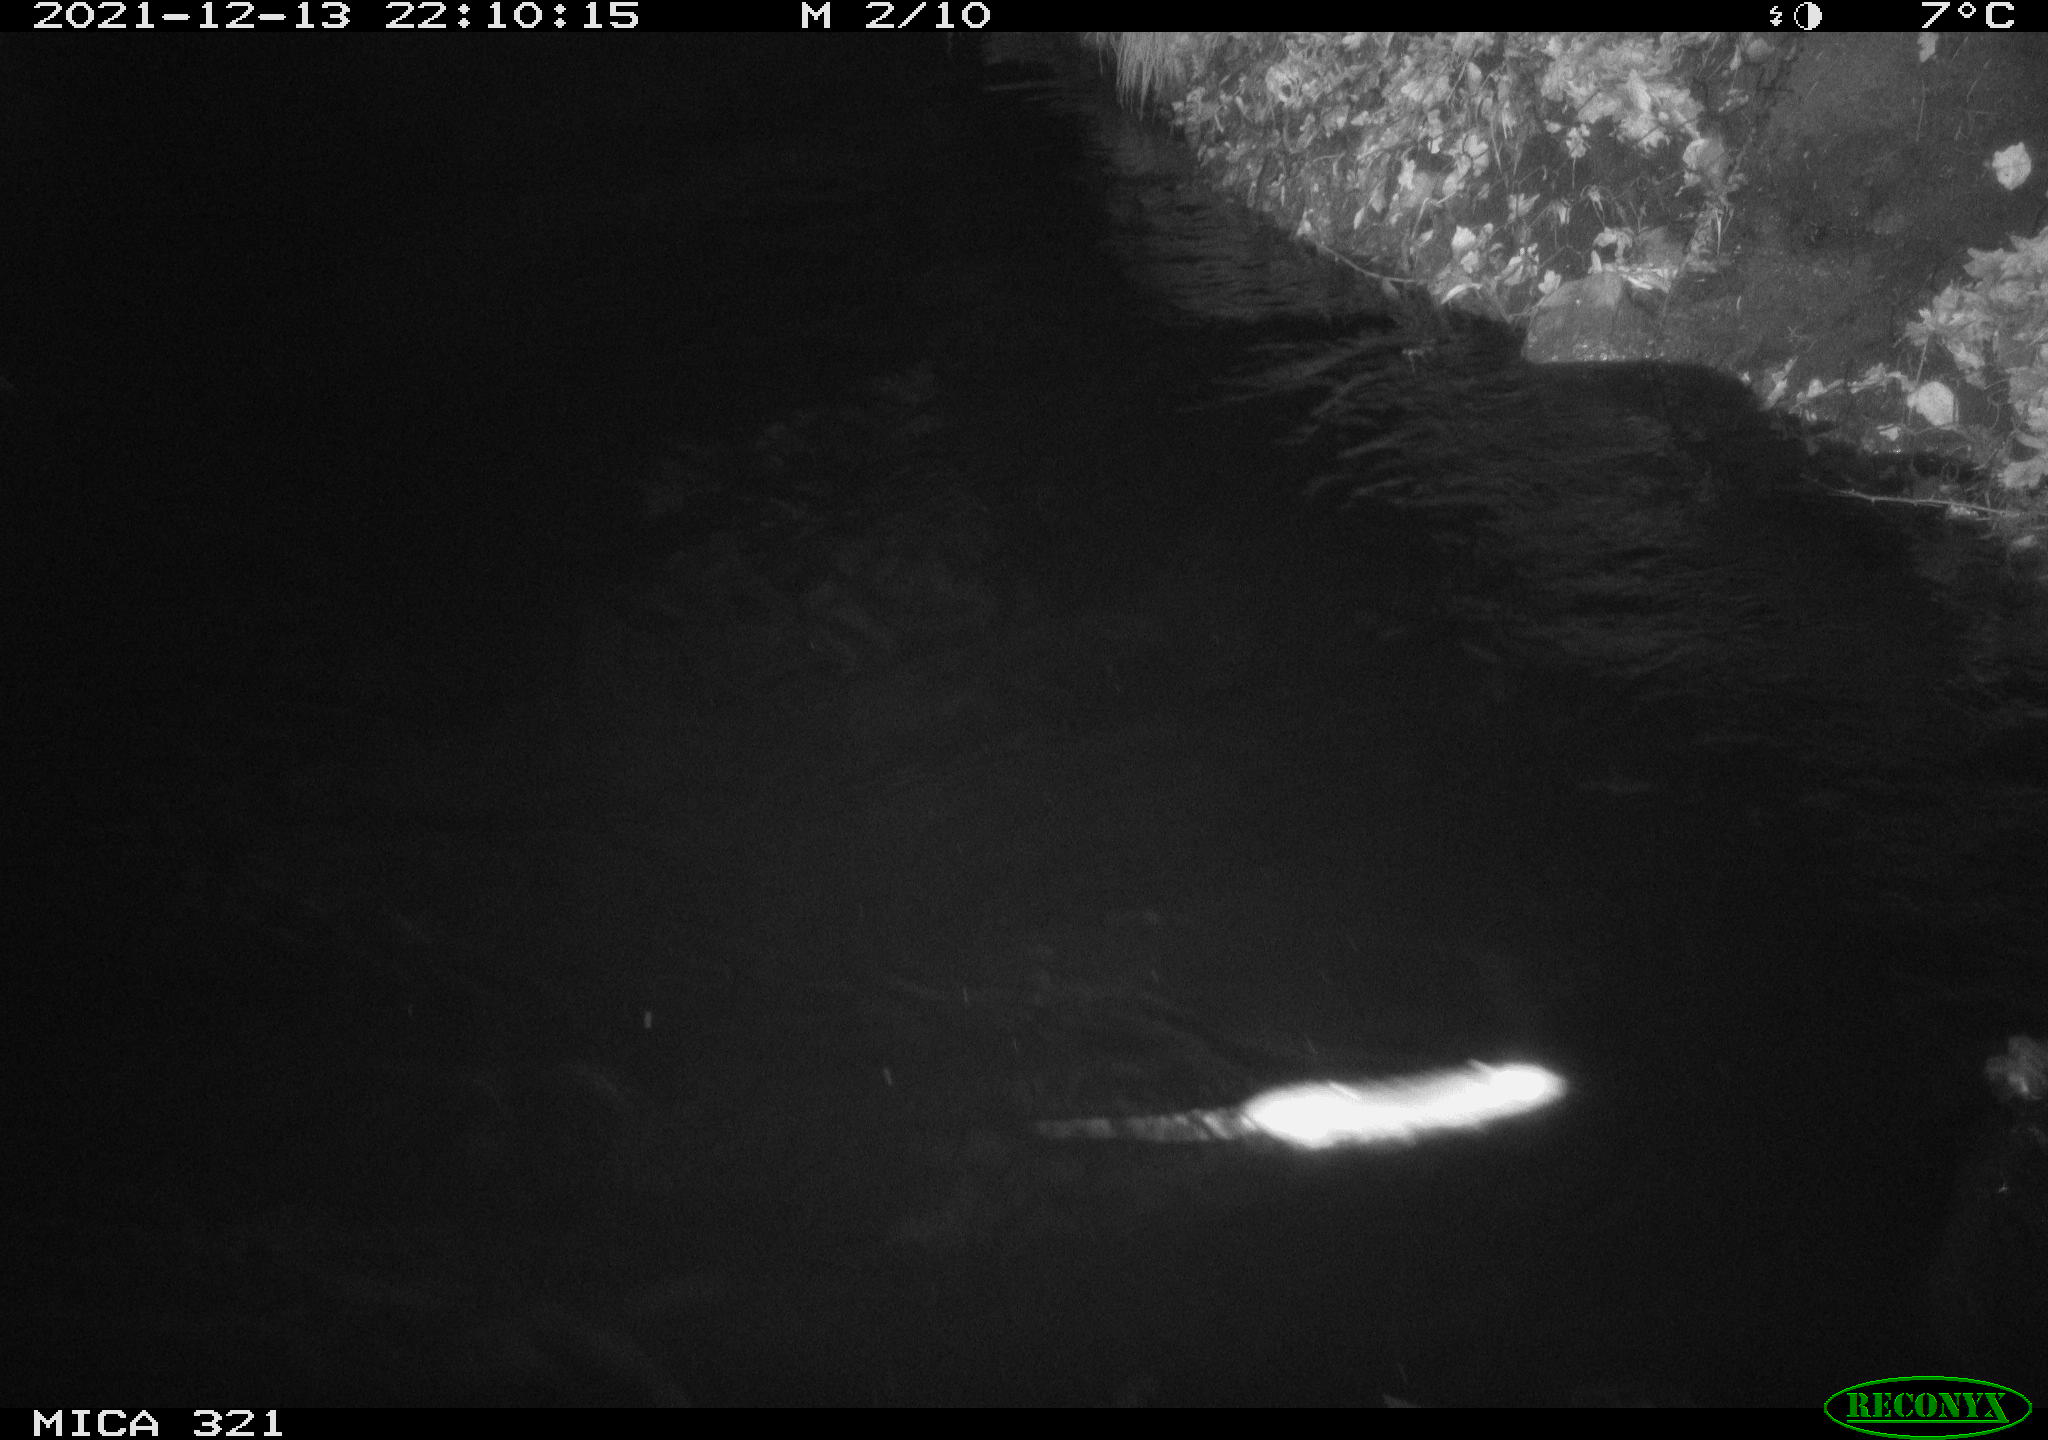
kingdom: Animalia
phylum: Chordata
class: Mammalia
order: Rodentia
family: Muridae
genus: Rattus
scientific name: Rattus norvegicus
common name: Brown rat
